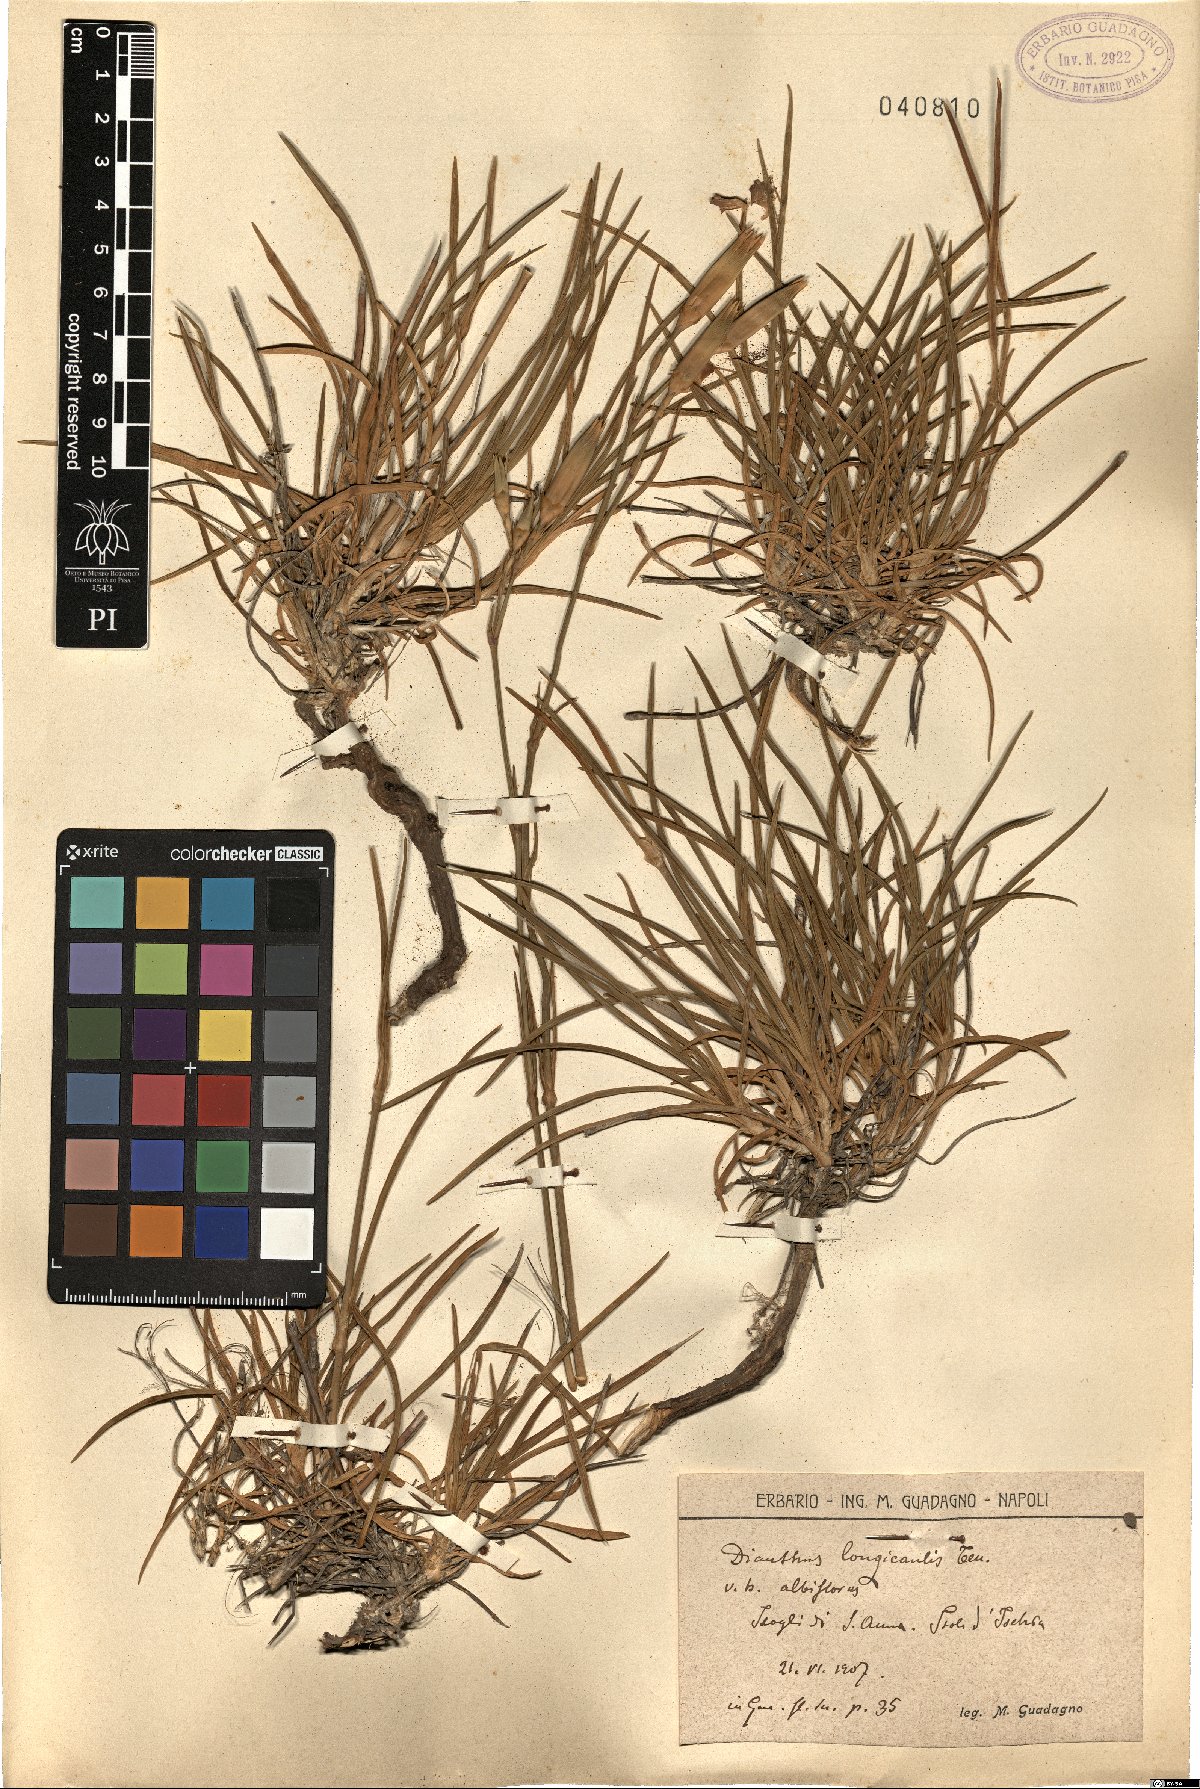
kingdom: Plantae
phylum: Tracheophyta
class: Magnoliopsida
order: Caryophyllales
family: Caryophyllaceae
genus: Dianthus
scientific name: Dianthus virgineus
